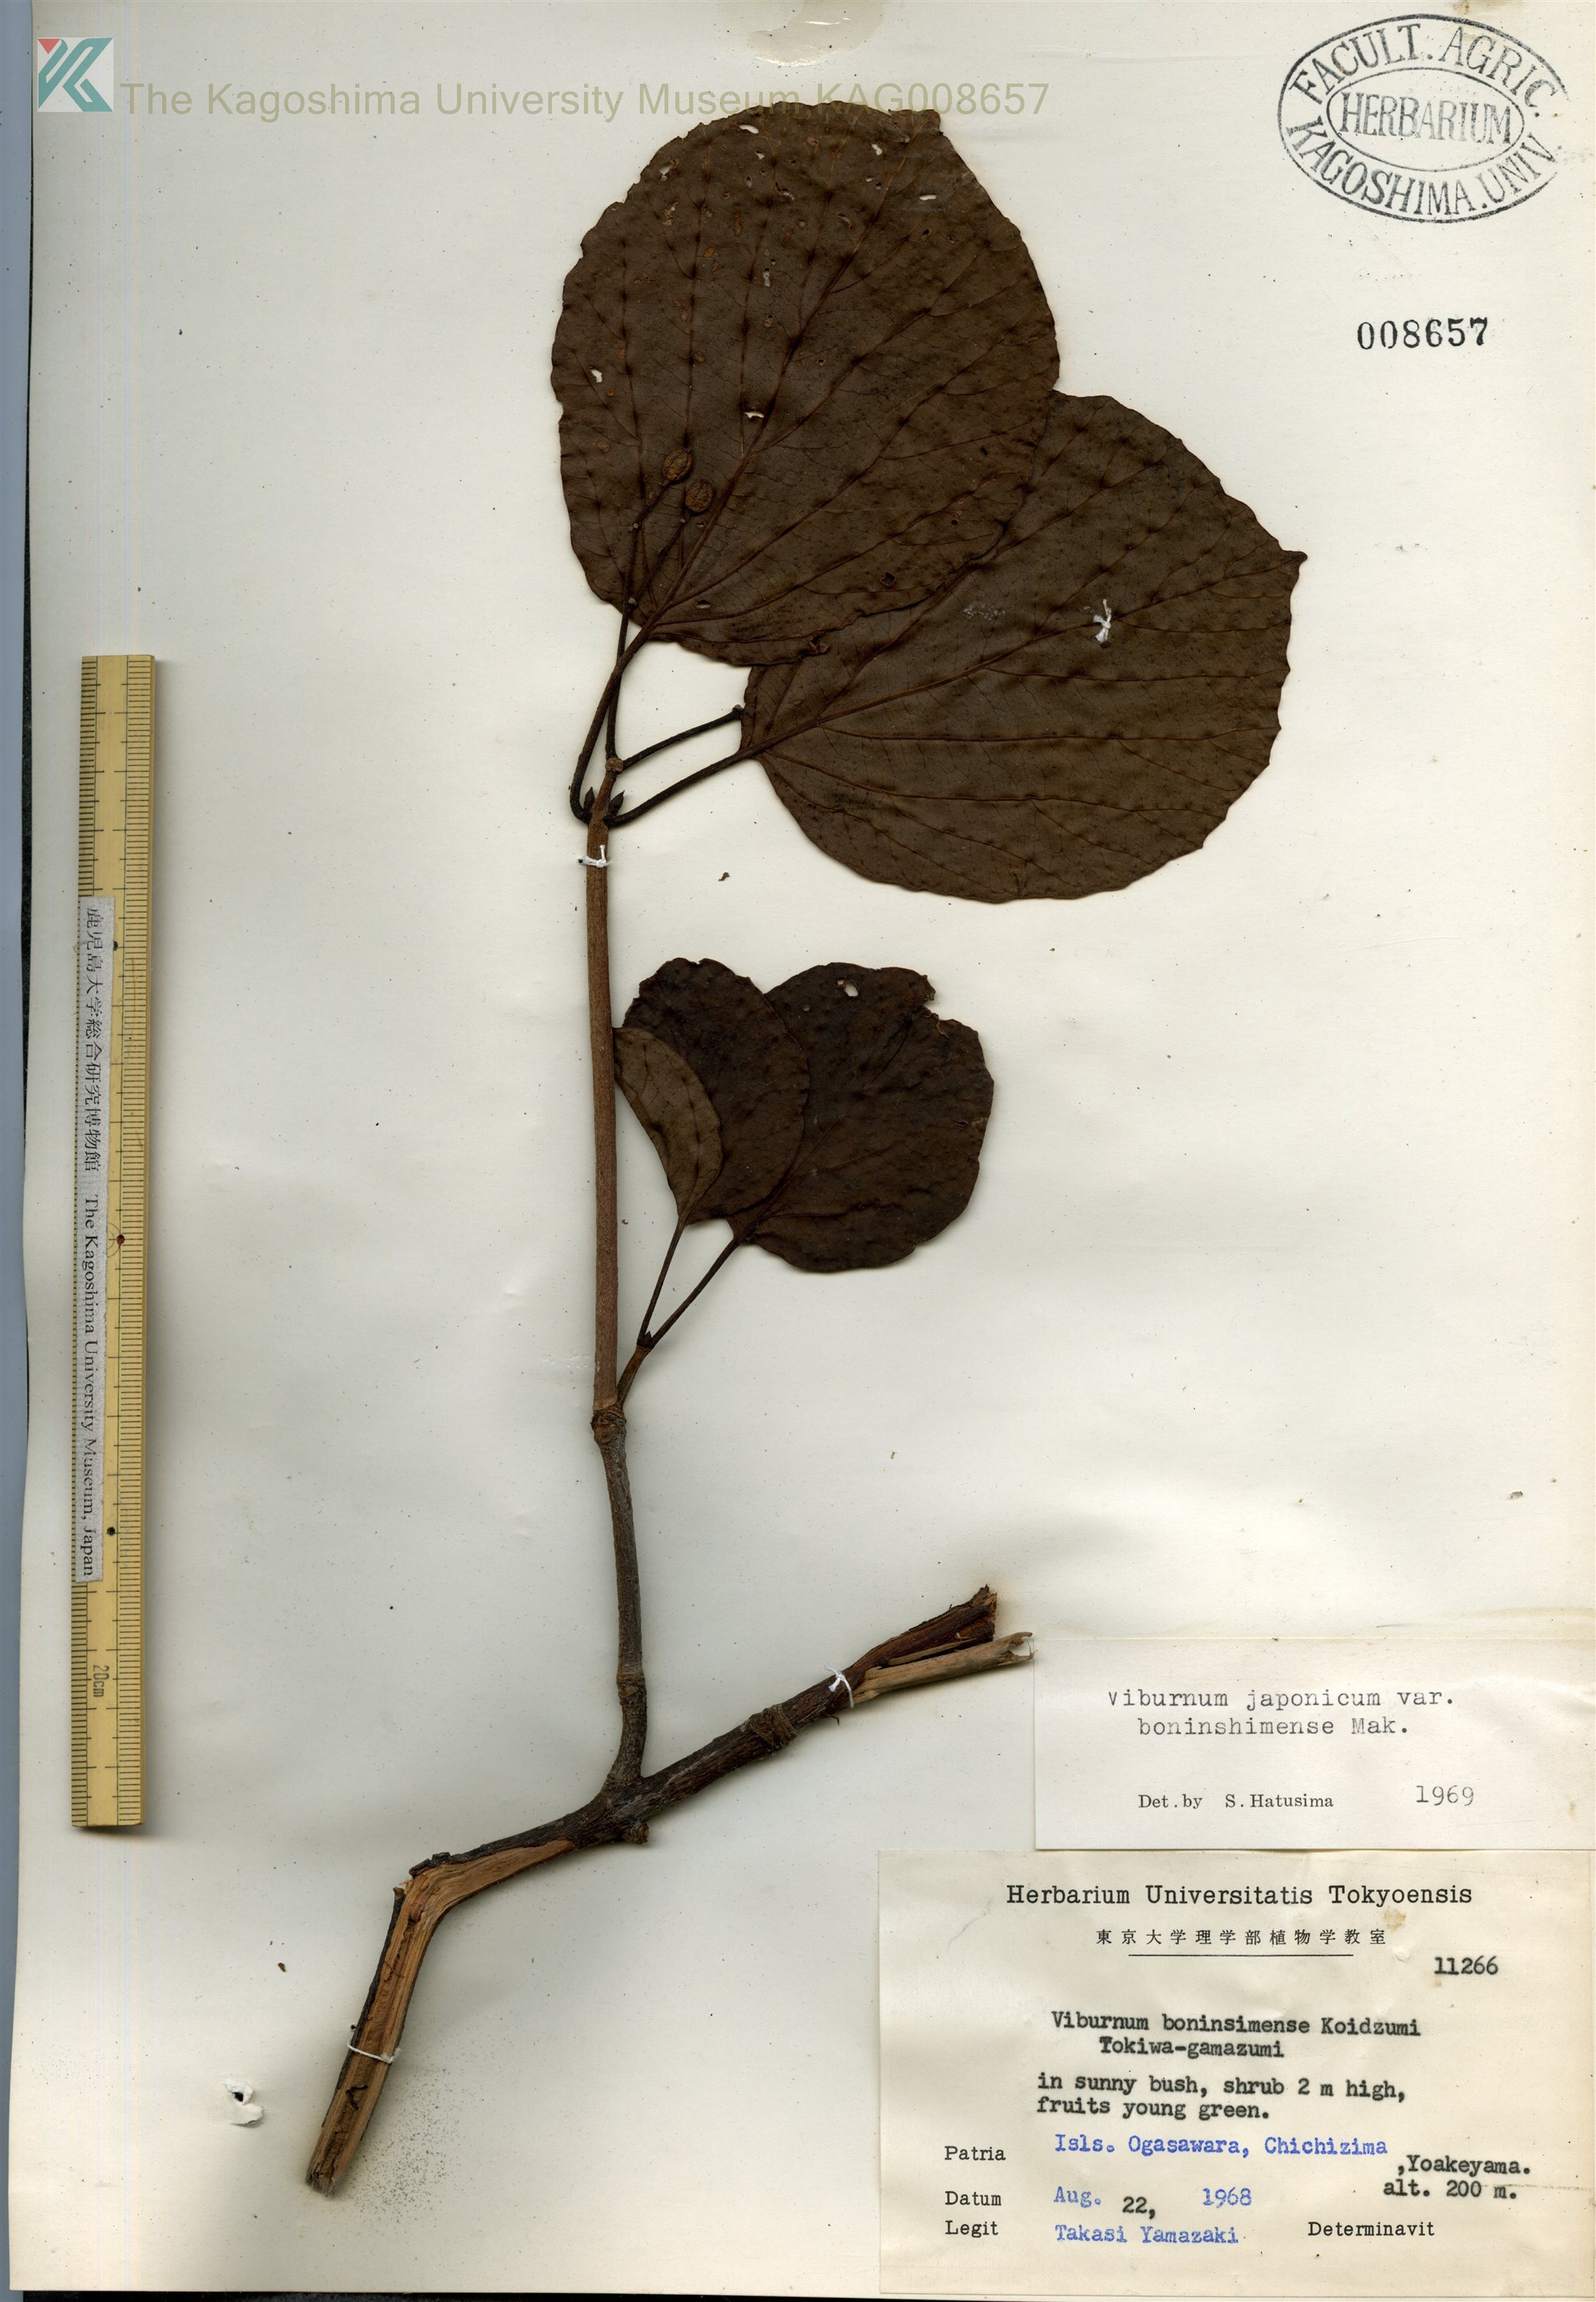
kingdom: Plantae
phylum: Tracheophyta
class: Magnoliopsida
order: Dipsacales
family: Viburnaceae
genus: Viburnum
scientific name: Viburnum japonicum
